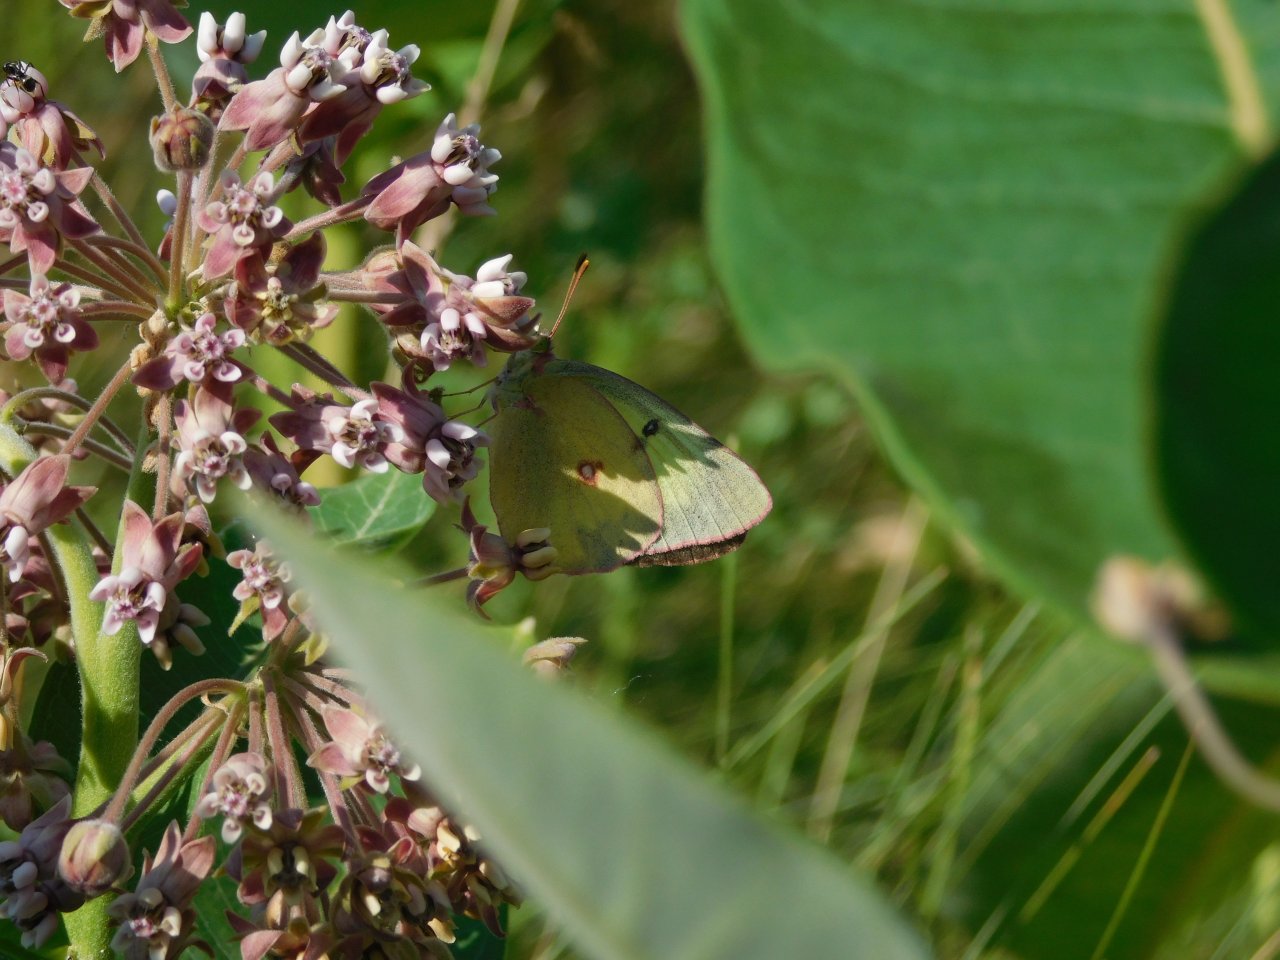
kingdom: Animalia
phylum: Arthropoda
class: Insecta
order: Lepidoptera
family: Pieridae
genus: Colias
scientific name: Colias philodice
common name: Clouded Sulphur
